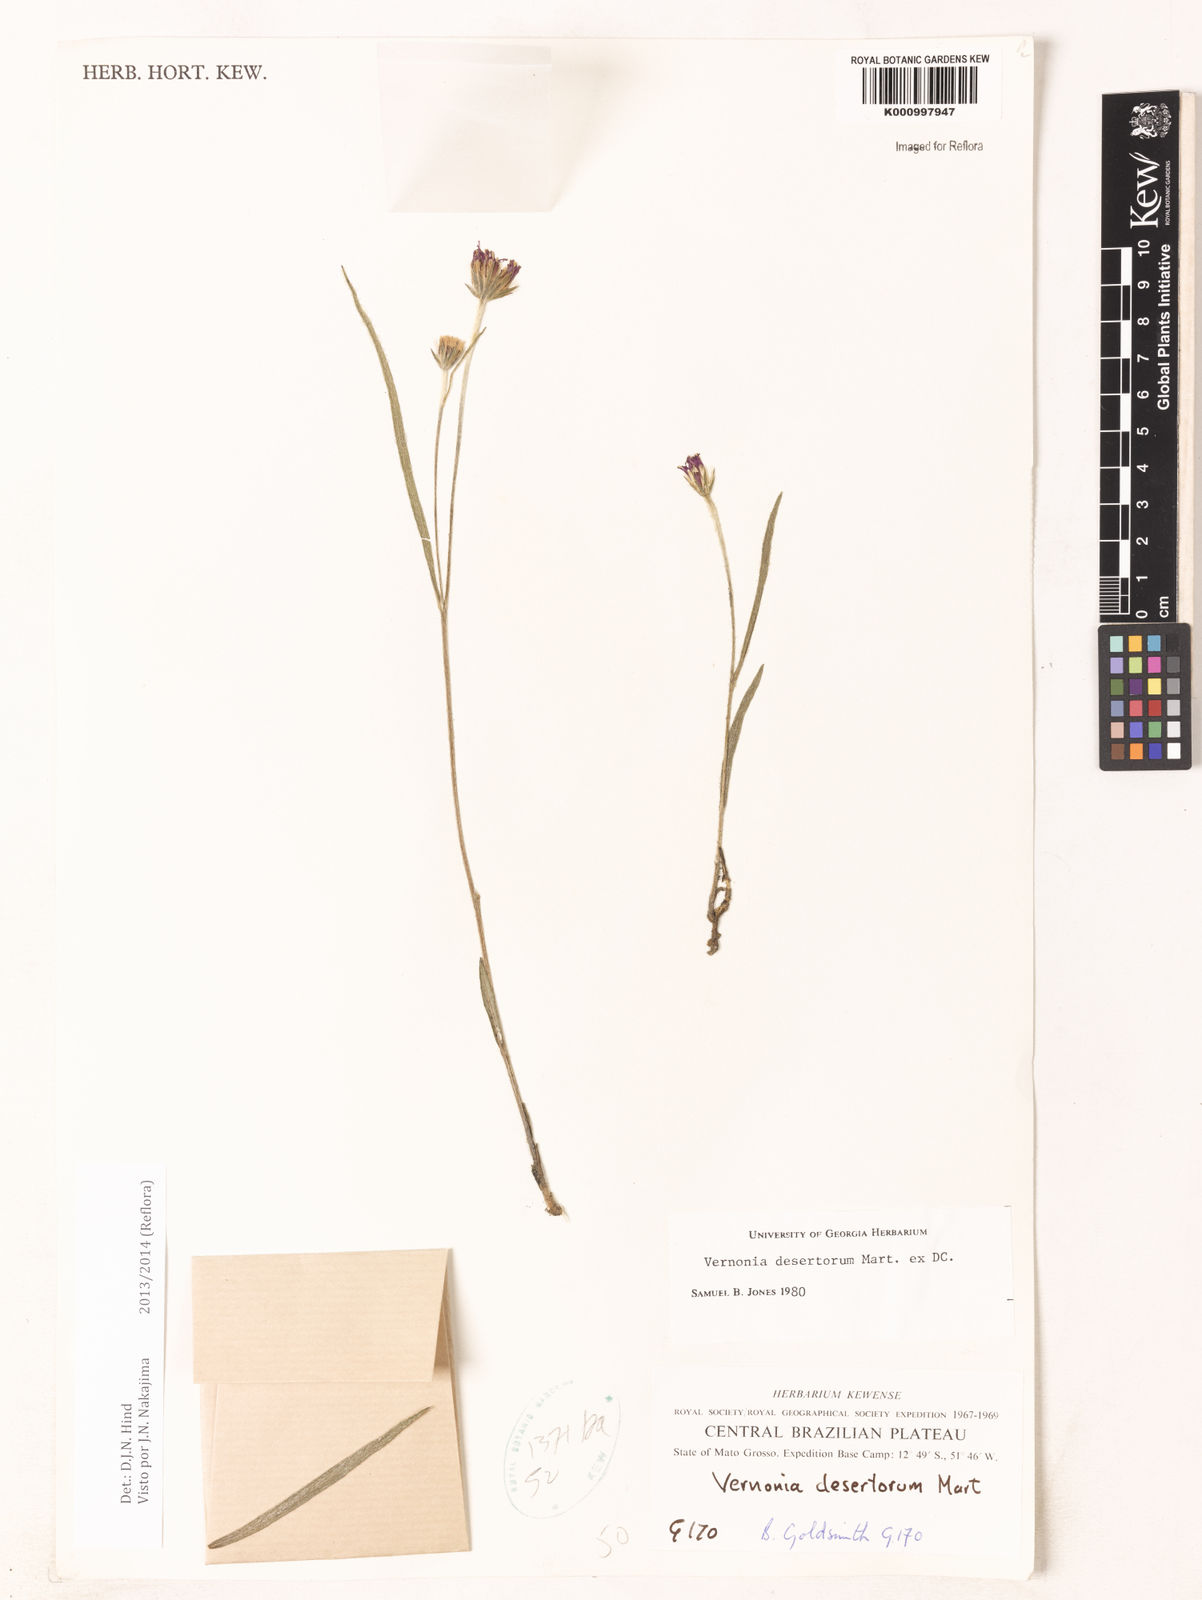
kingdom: Plantae
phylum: Tracheophyta
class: Magnoliopsida
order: Asterales
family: Asteraceae
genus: Chrysolaena
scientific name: Chrysolaena desertorum
